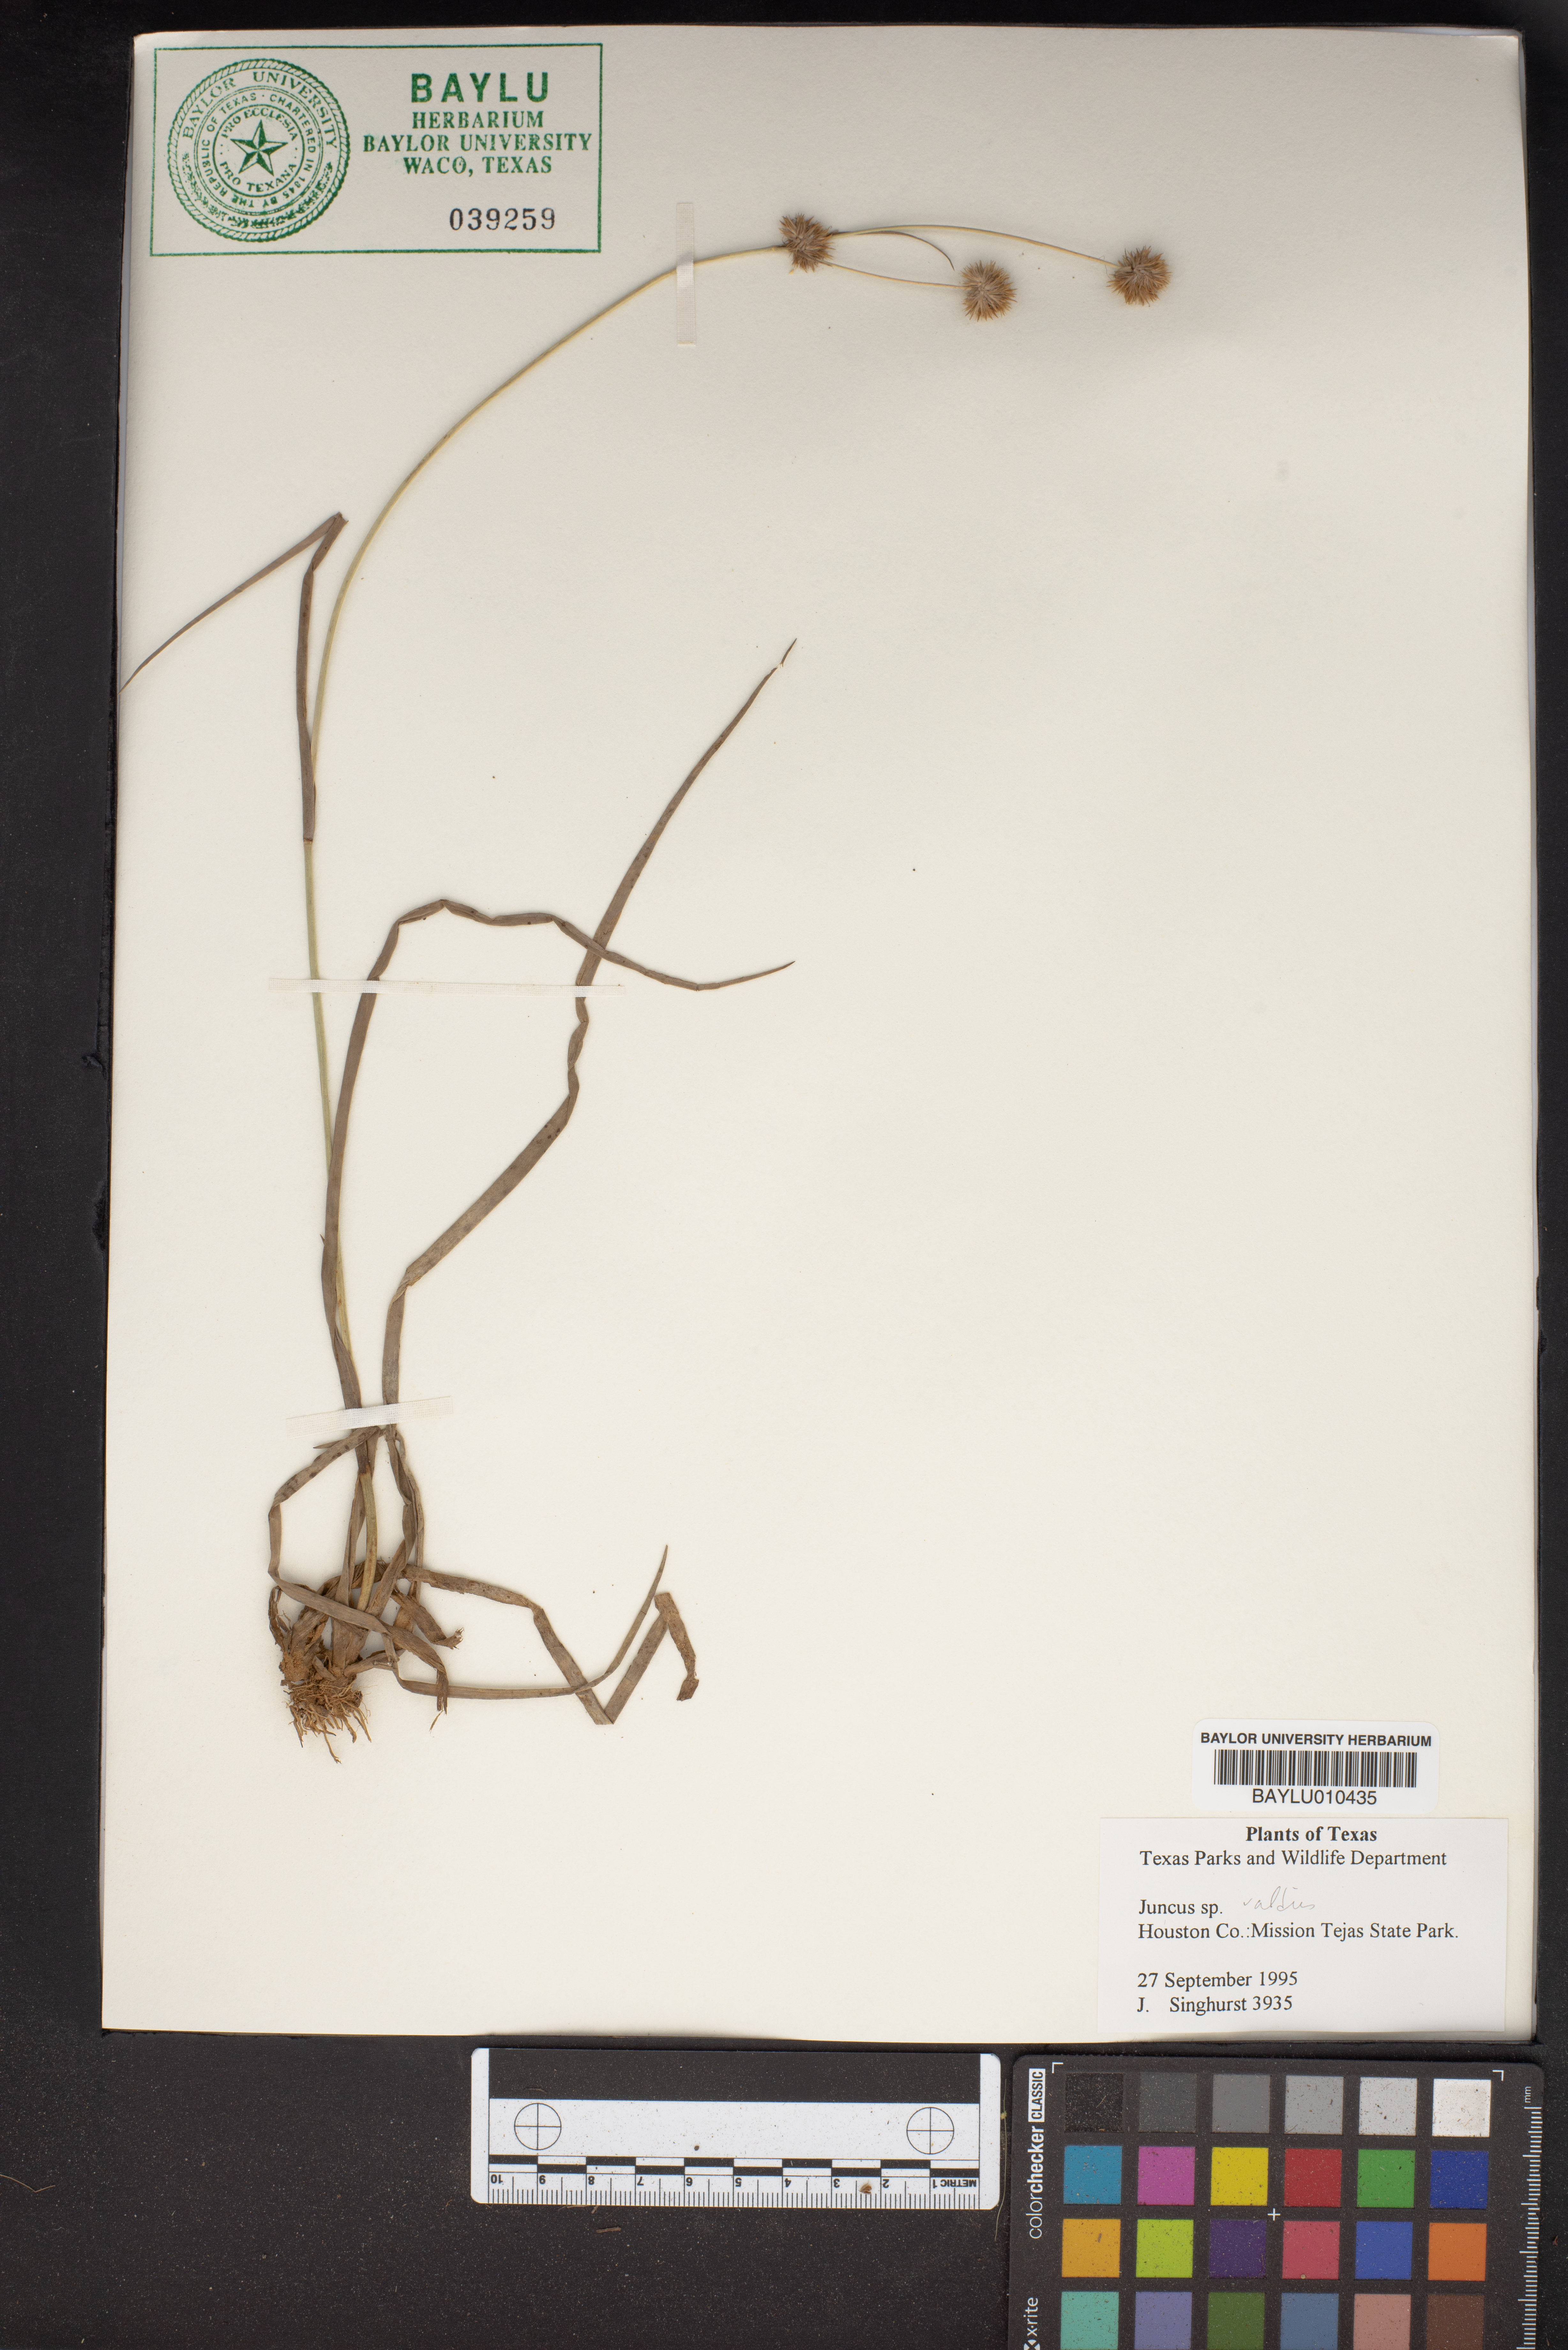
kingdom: Plantae
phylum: Tracheophyta
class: Liliopsida
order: Poales
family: Juncaceae
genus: Juncus
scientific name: Juncus validus
